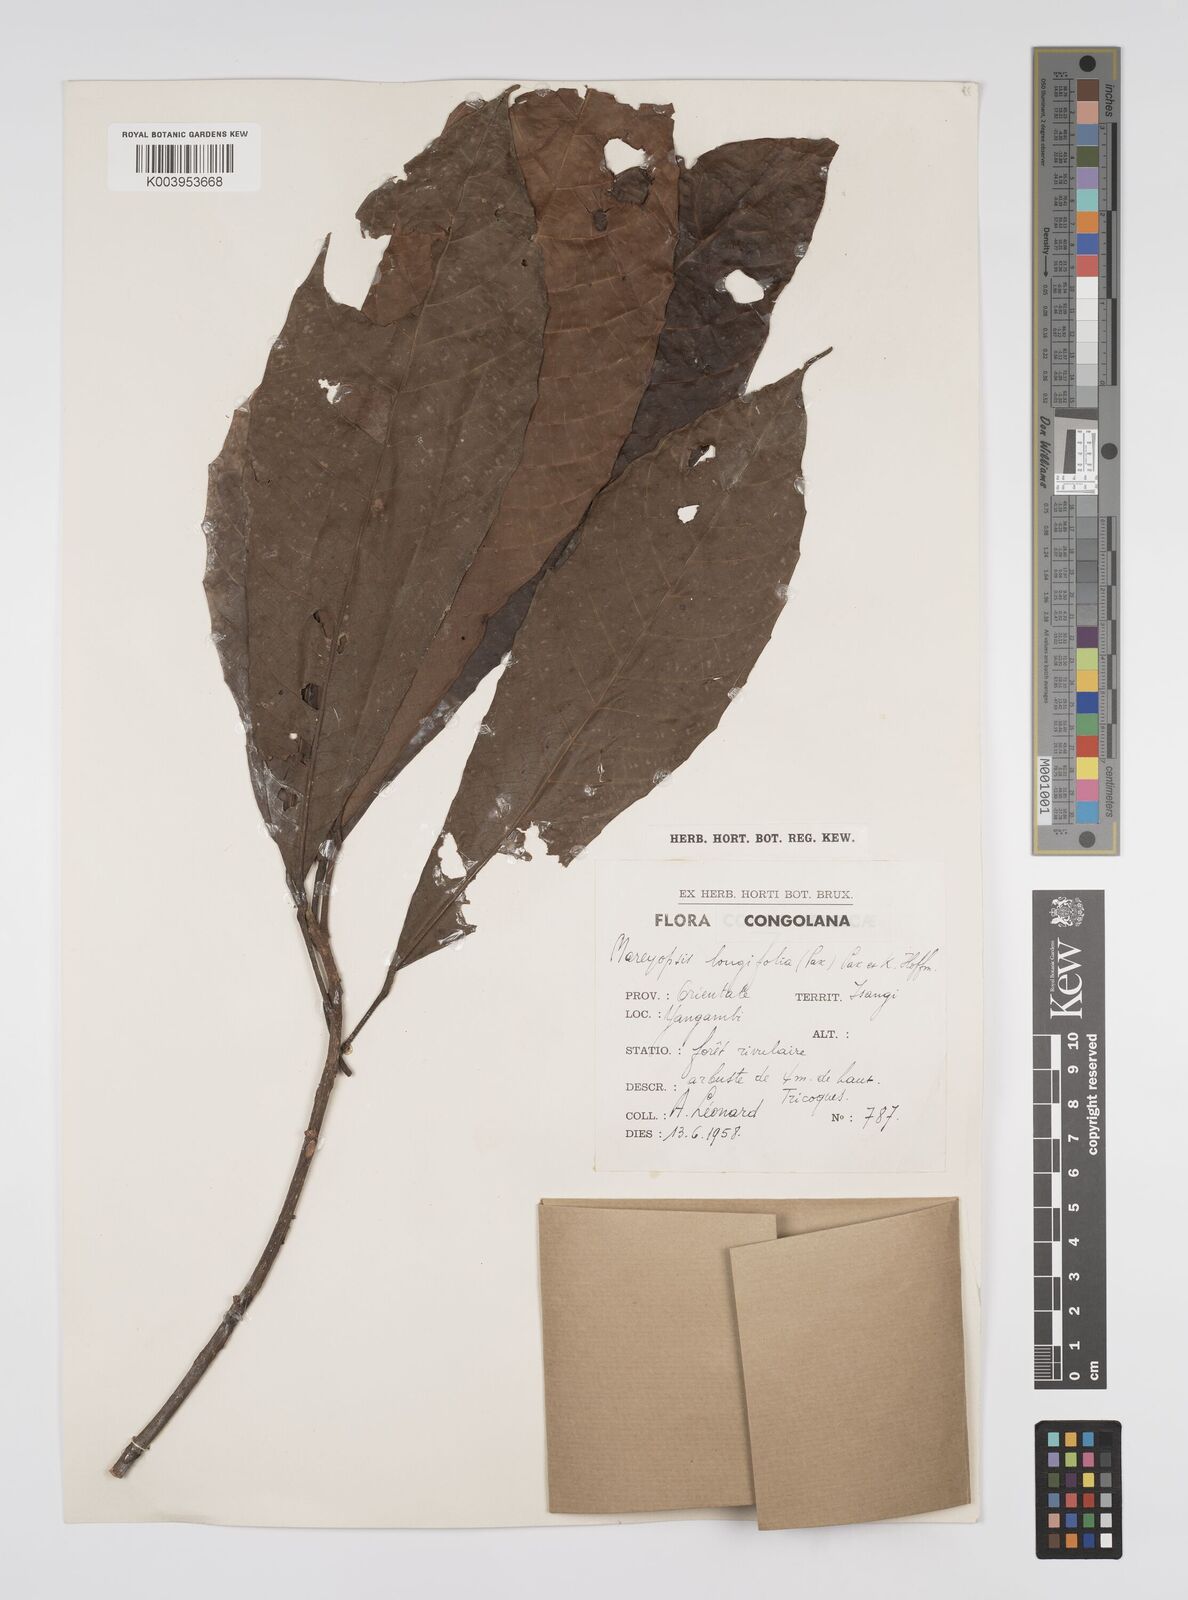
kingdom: Plantae
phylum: Tracheophyta
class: Magnoliopsida
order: Malpighiales
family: Euphorbiaceae
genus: Mareyopsis
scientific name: Mareyopsis longifolia
